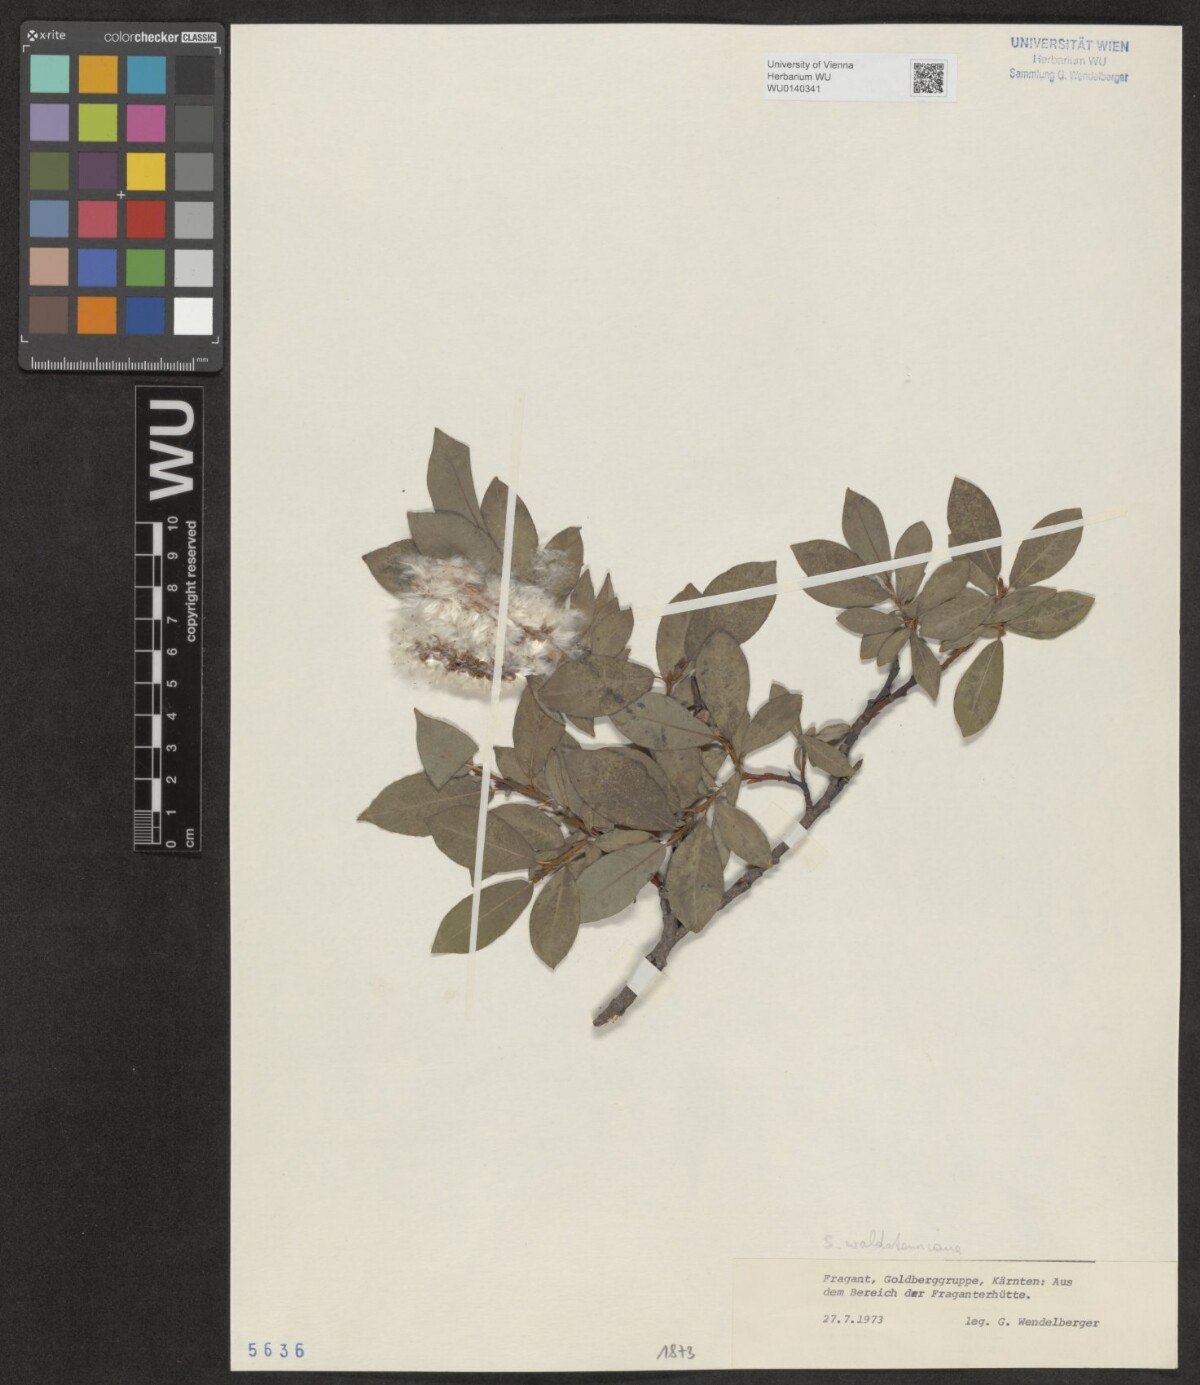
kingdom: Plantae
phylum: Tracheophyta
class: Magnoliopsida
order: Malpighiales
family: Salicaceae
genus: Salix
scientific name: Salix waldsteiniana
